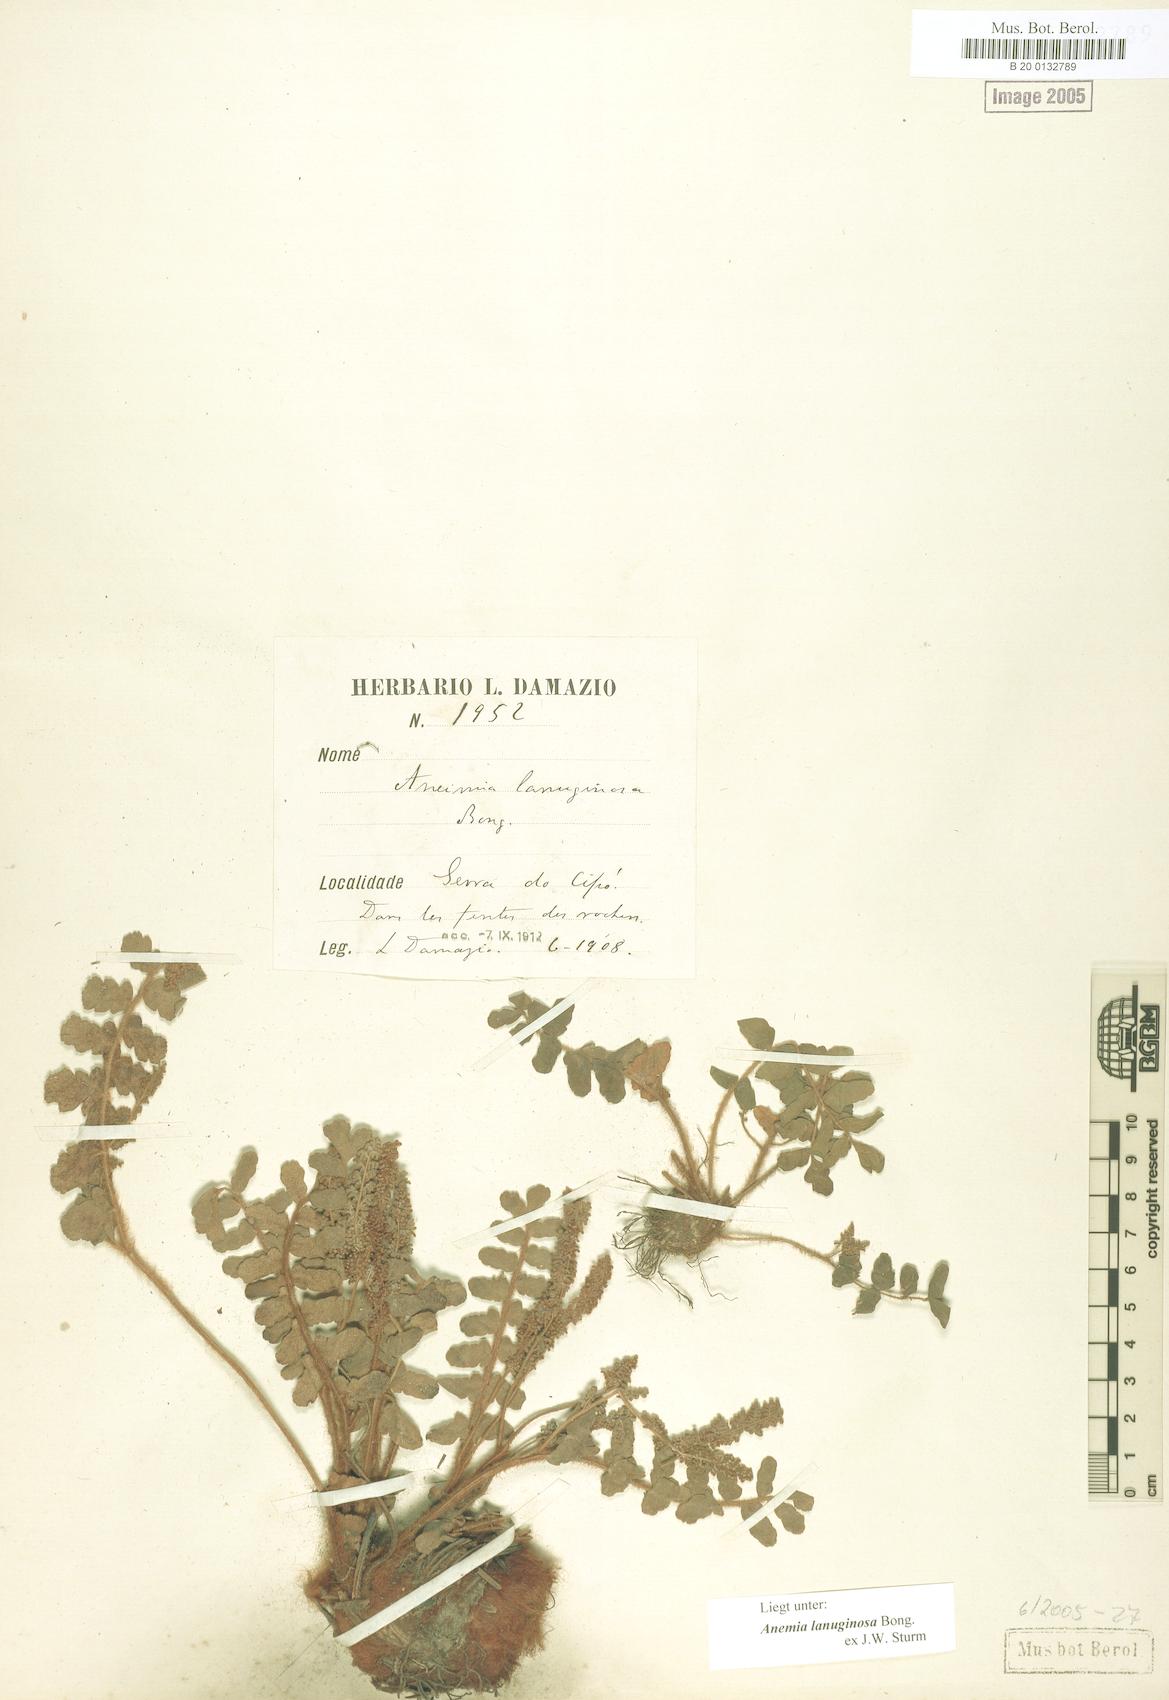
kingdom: Plantae
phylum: Tracheophyta
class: Polypodiopsida
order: Schizaeales
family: Anemiaceae
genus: Anemia
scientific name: Anemia lanuginosa
